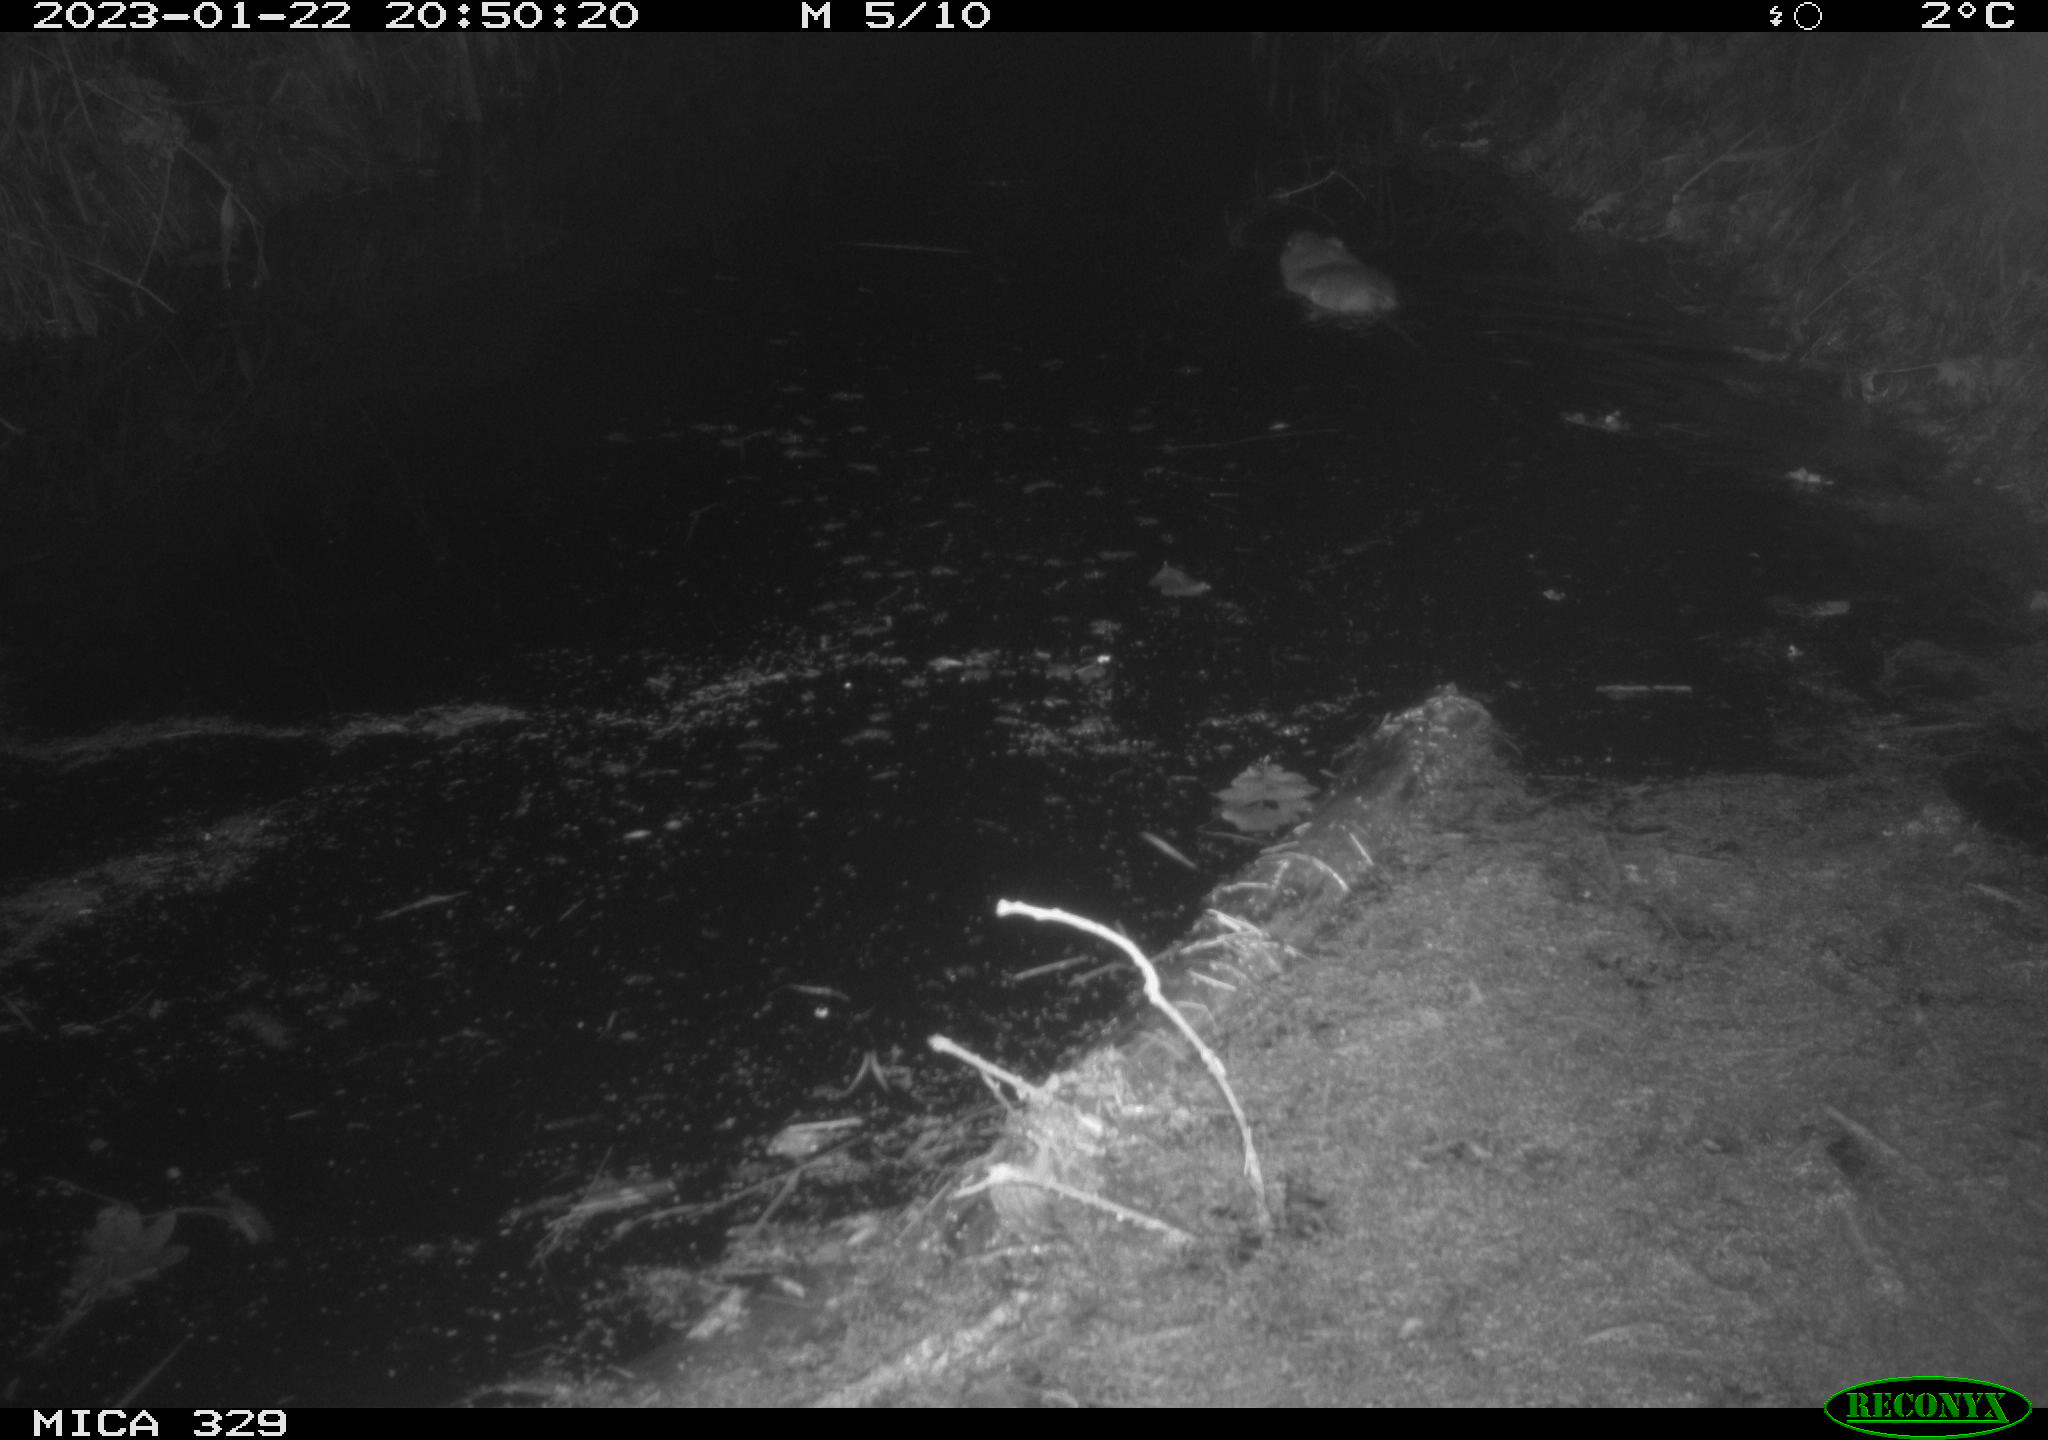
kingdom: Animalia
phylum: Chordata
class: Mammalia
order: Rodentia
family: Cricetidae
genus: Ondatra
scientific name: Ondatra zibethicus
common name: Muskrat
